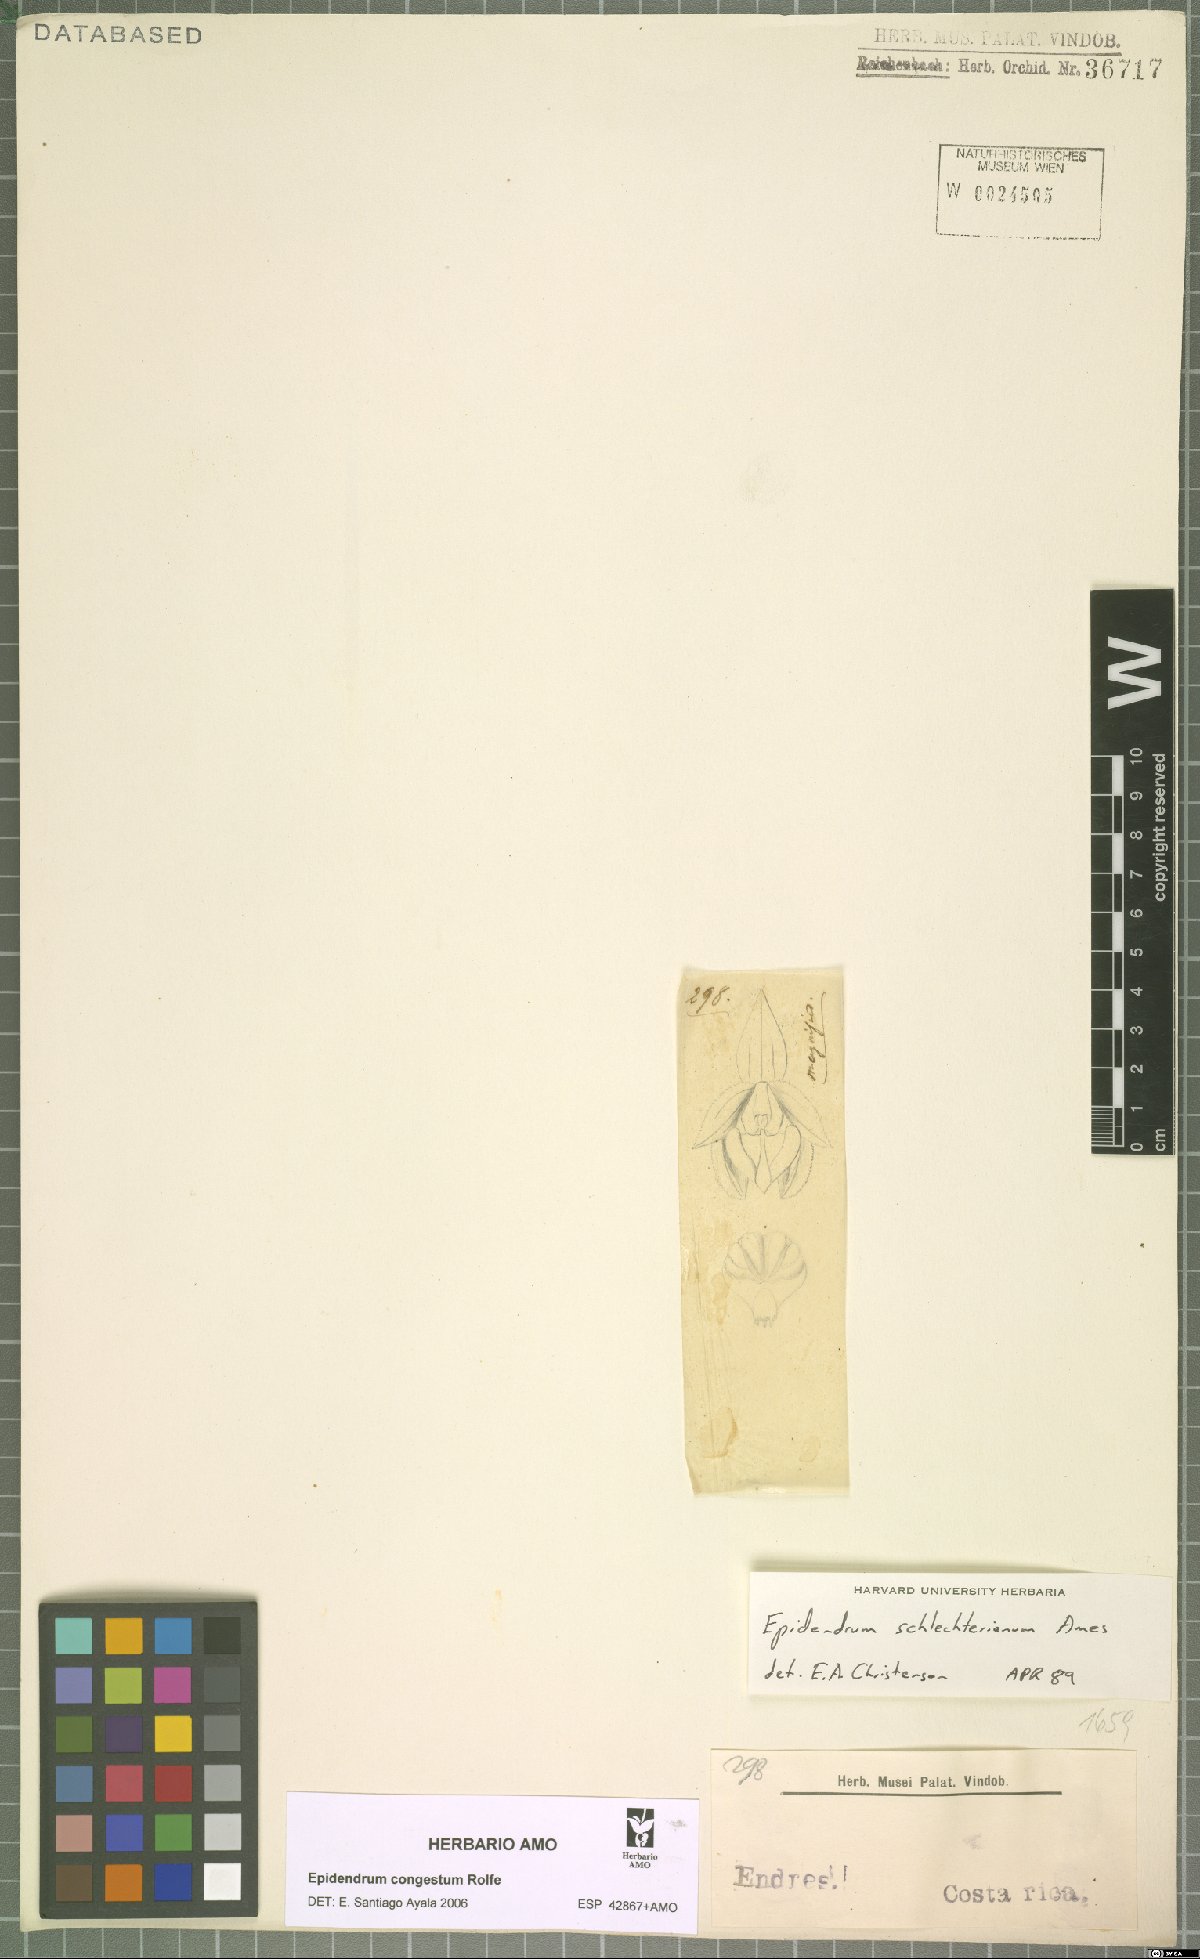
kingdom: Plantae
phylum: Tracheophyta
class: Liliopsida
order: Asparagales
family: Orchidaceae
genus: Epidendrum
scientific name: Epidendrum congestum
